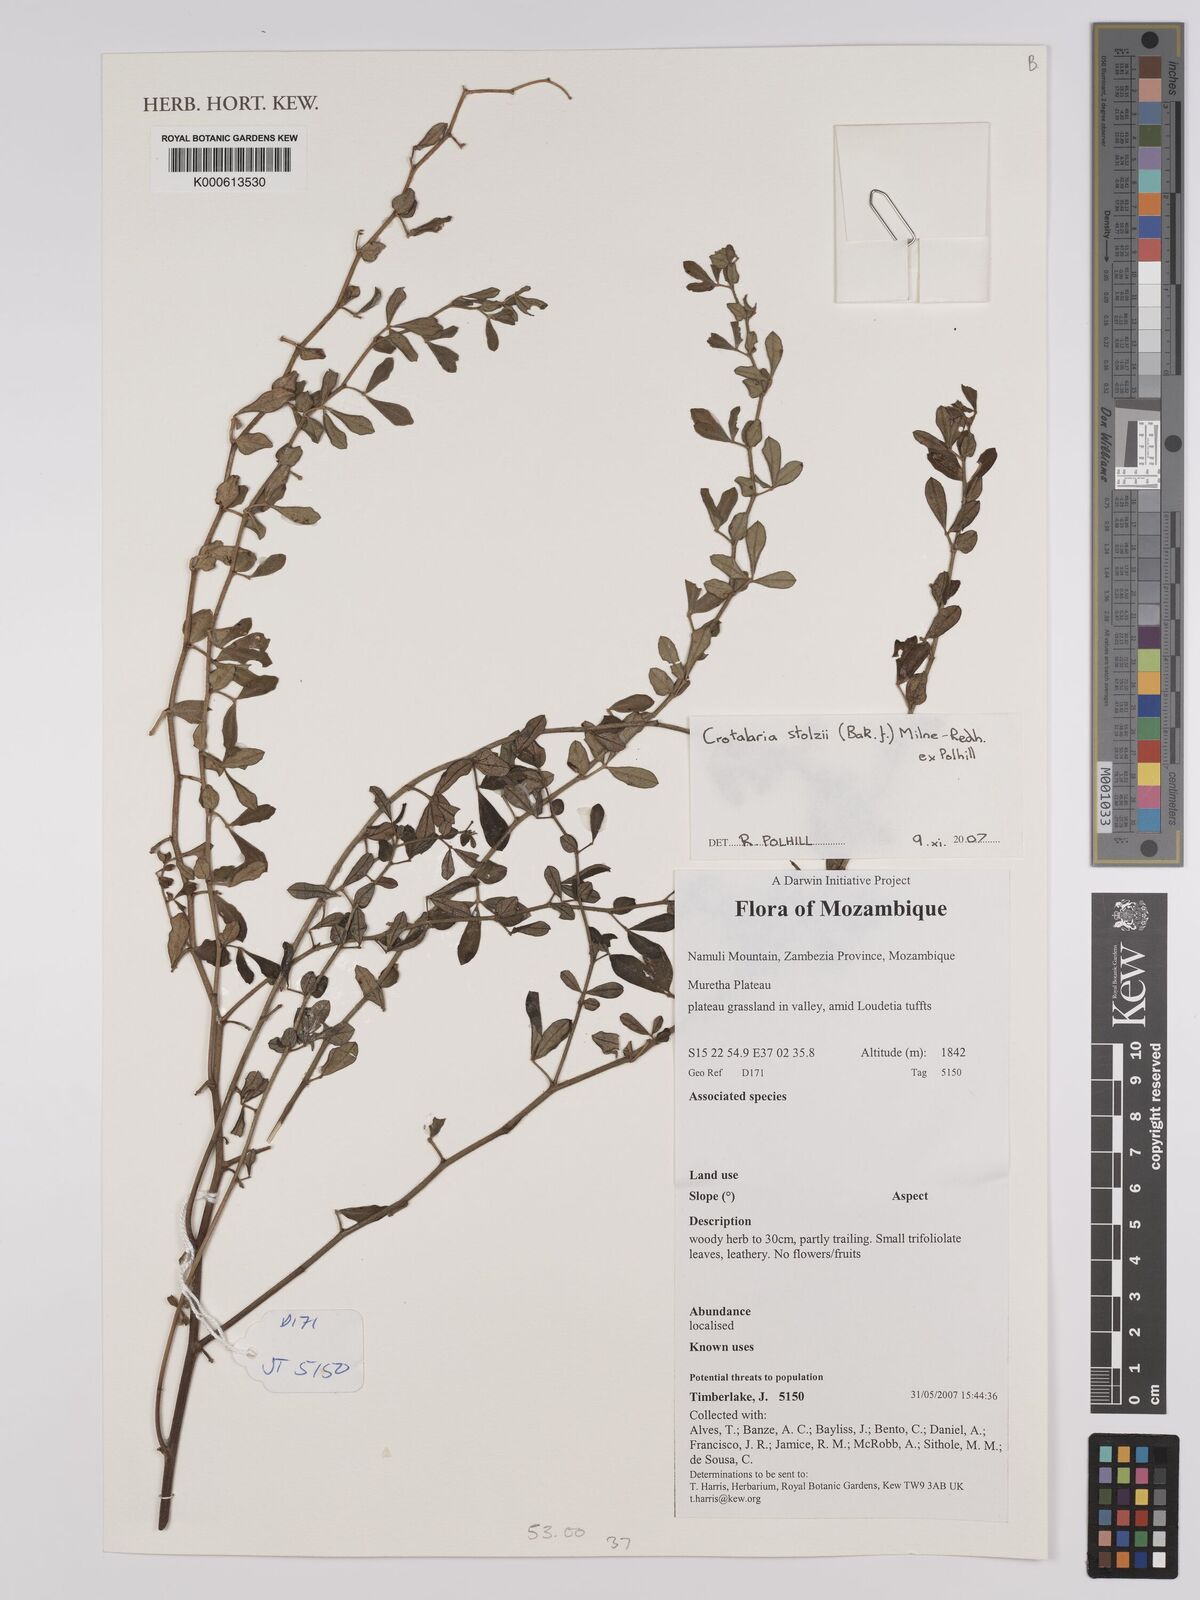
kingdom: Plantae
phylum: Tracheophyta
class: Magnoliopsida
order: Fabales
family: Fabaceae
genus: Crotalaria
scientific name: Crotalaria stolzii
